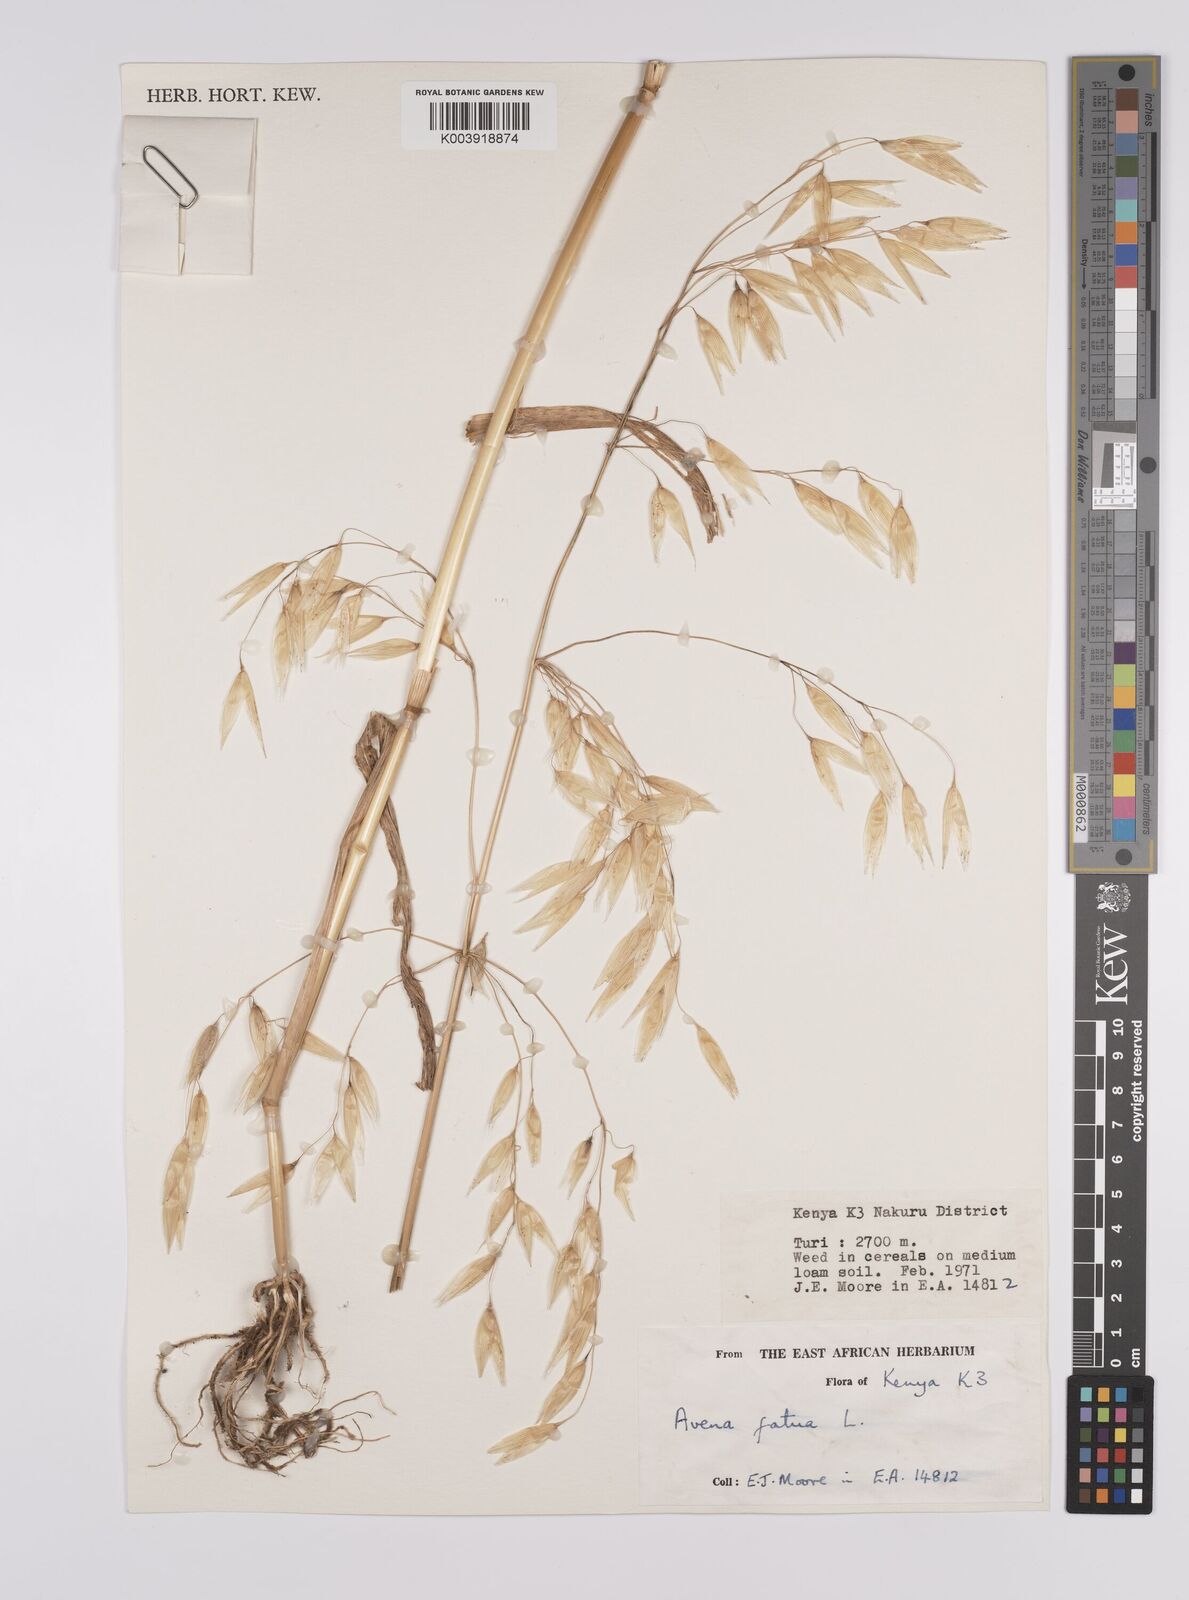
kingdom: Plantae
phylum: Tracheophyta
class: Liliopsida
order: Poales
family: Poaceae
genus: Avena
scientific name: Avena fatua
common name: Wild oat
